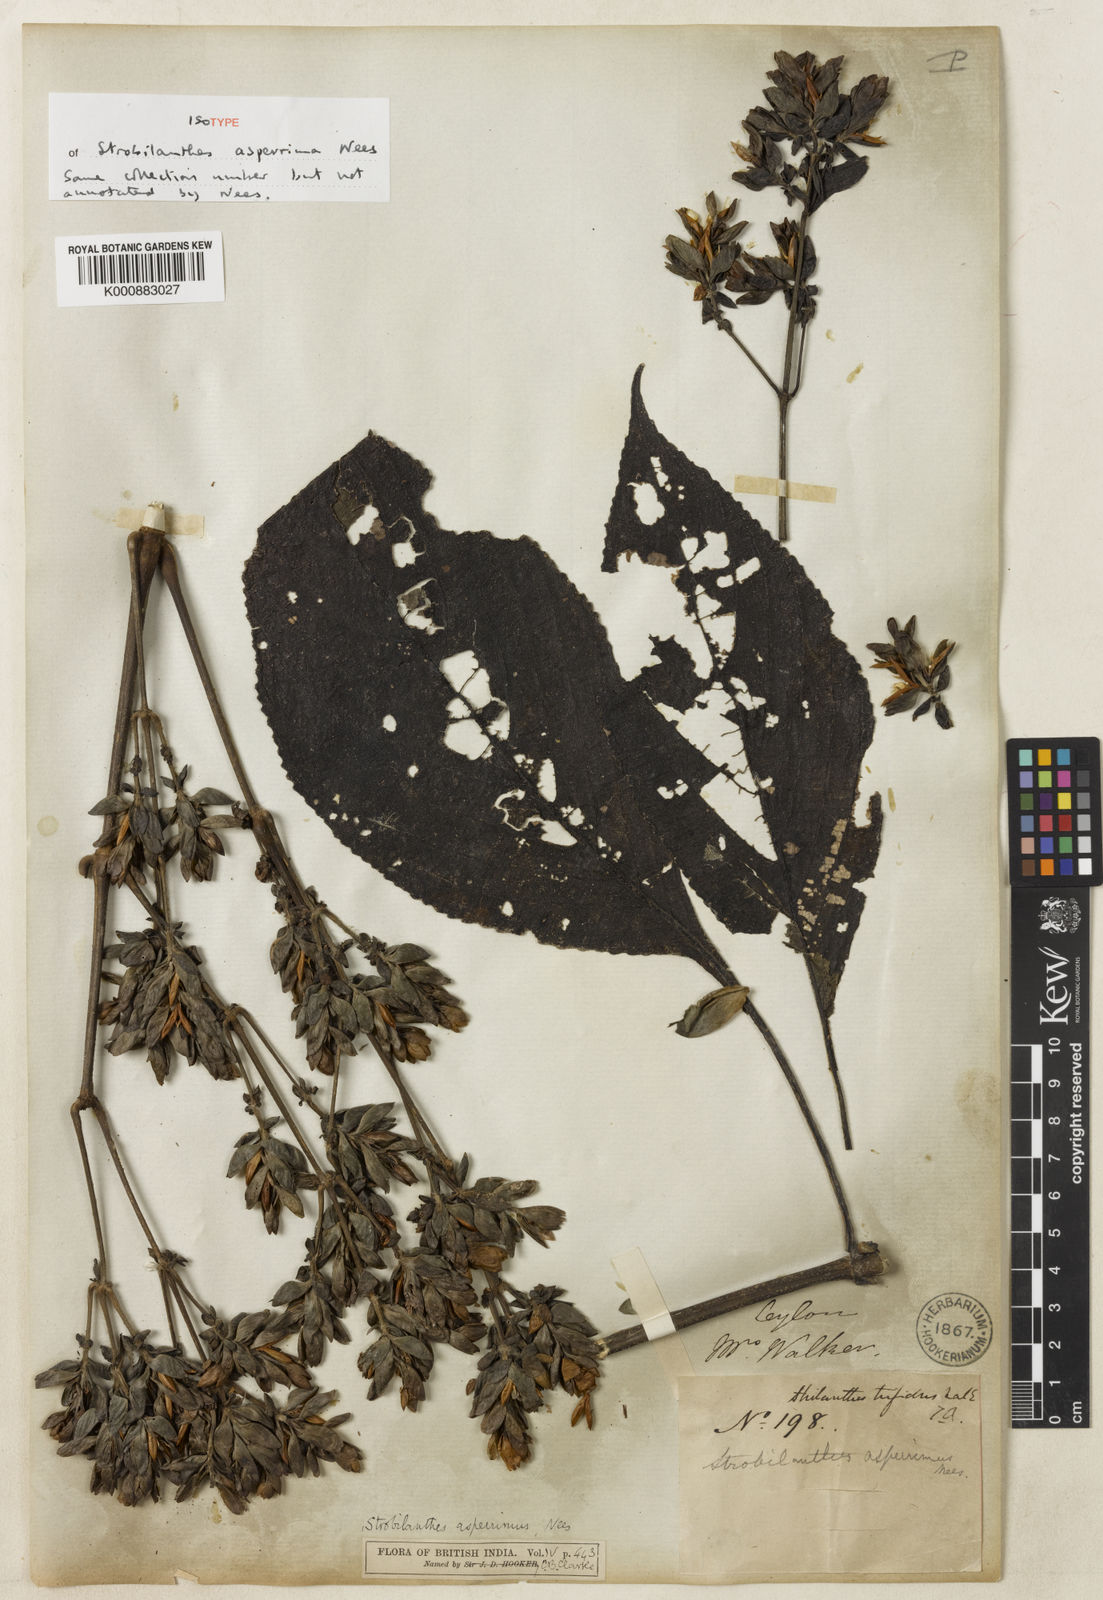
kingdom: Plantae
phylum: Tracheophyta
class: Magnoliopsida
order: Lamiales
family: Acanthaceae
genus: Strobilanthes
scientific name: Strobilanthes
